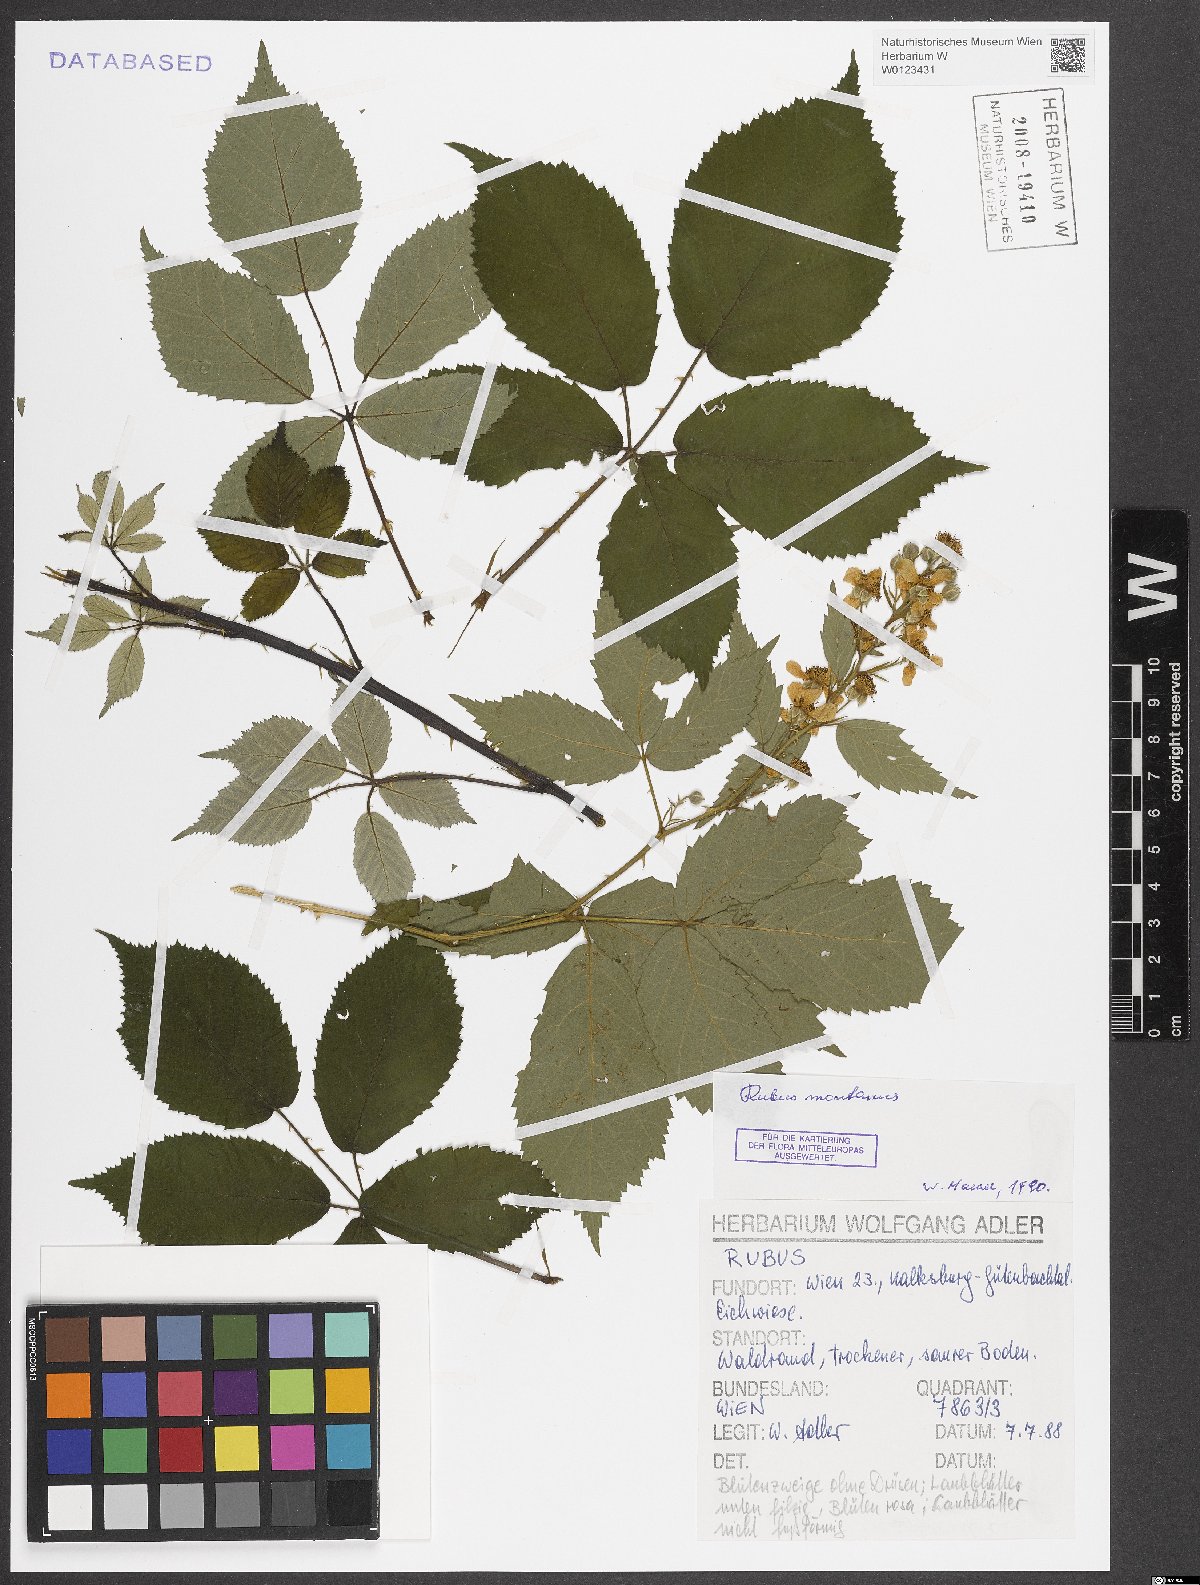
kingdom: Plantae
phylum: Tracheophyta
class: Magnoliopsida
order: Rosales
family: Rosaceae
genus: Rubus
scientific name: Rubus montanus
